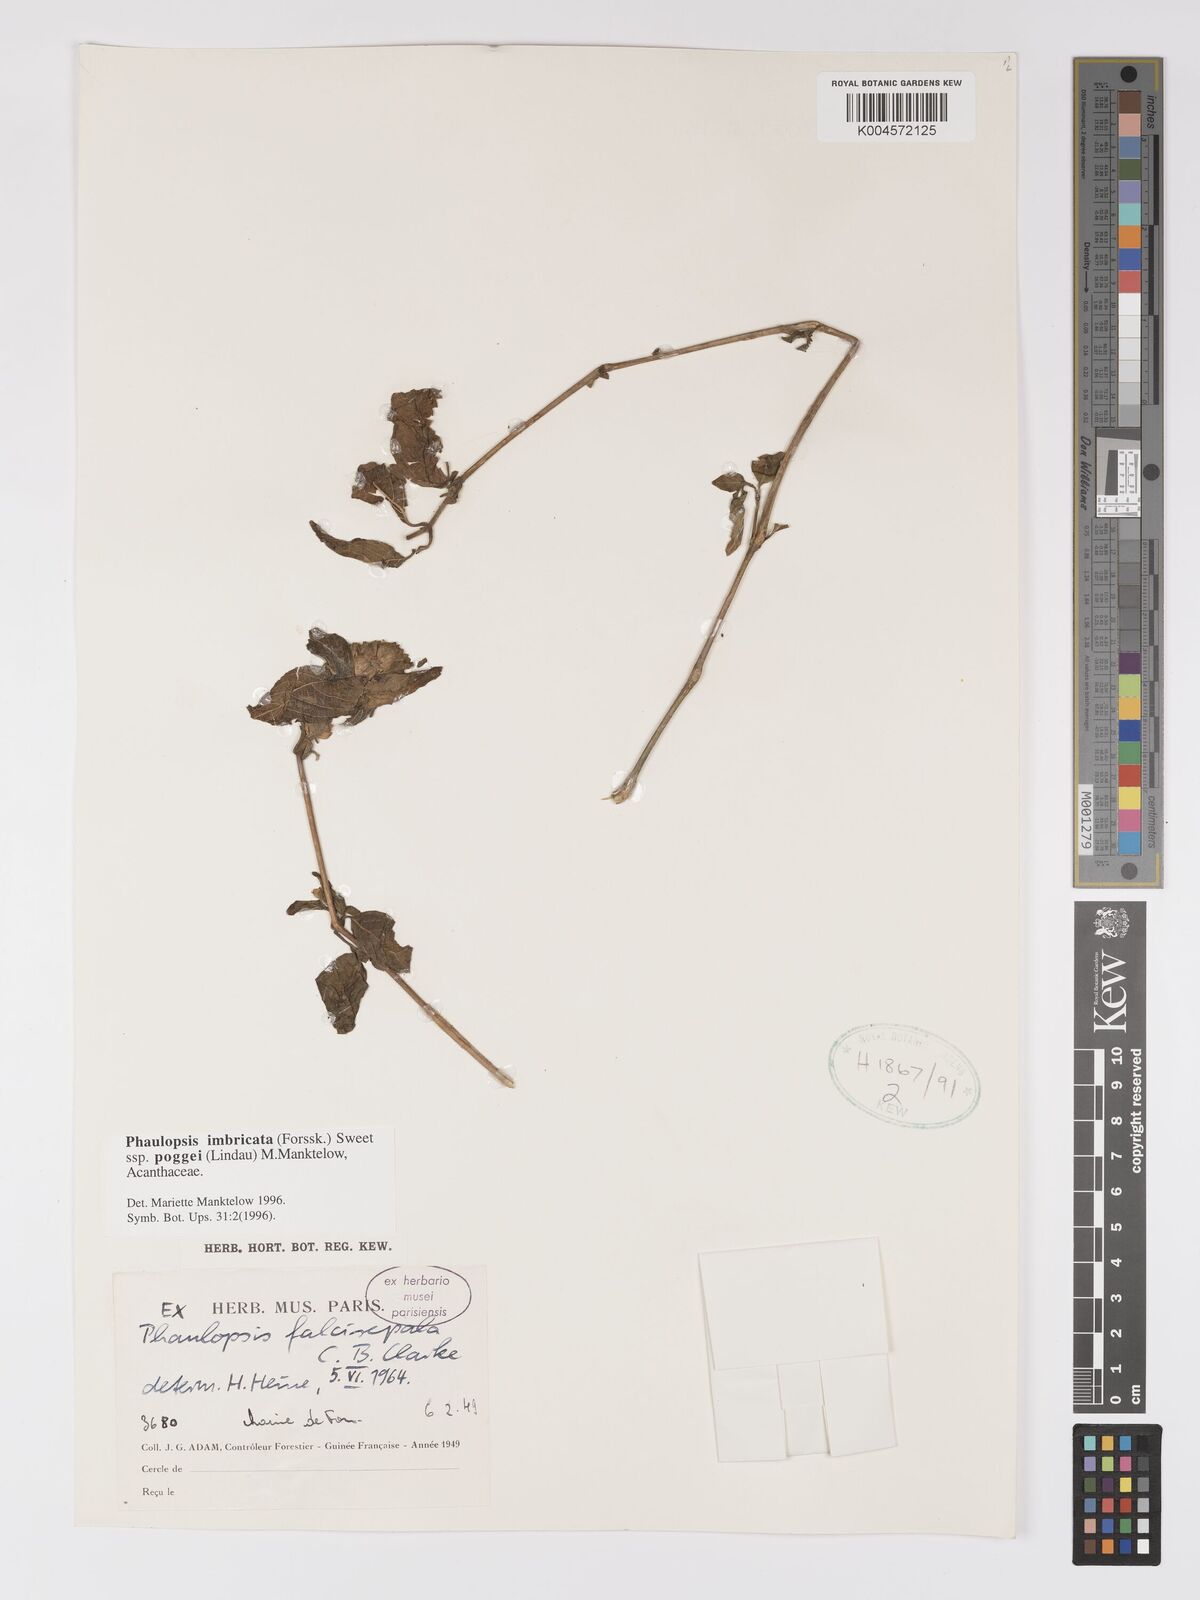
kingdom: Plantae
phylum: Tracheophyta
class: Magnoliopsida
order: Lamiales
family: Acanthaceae
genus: Phaulopsis
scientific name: Phaulopsis imbricata
